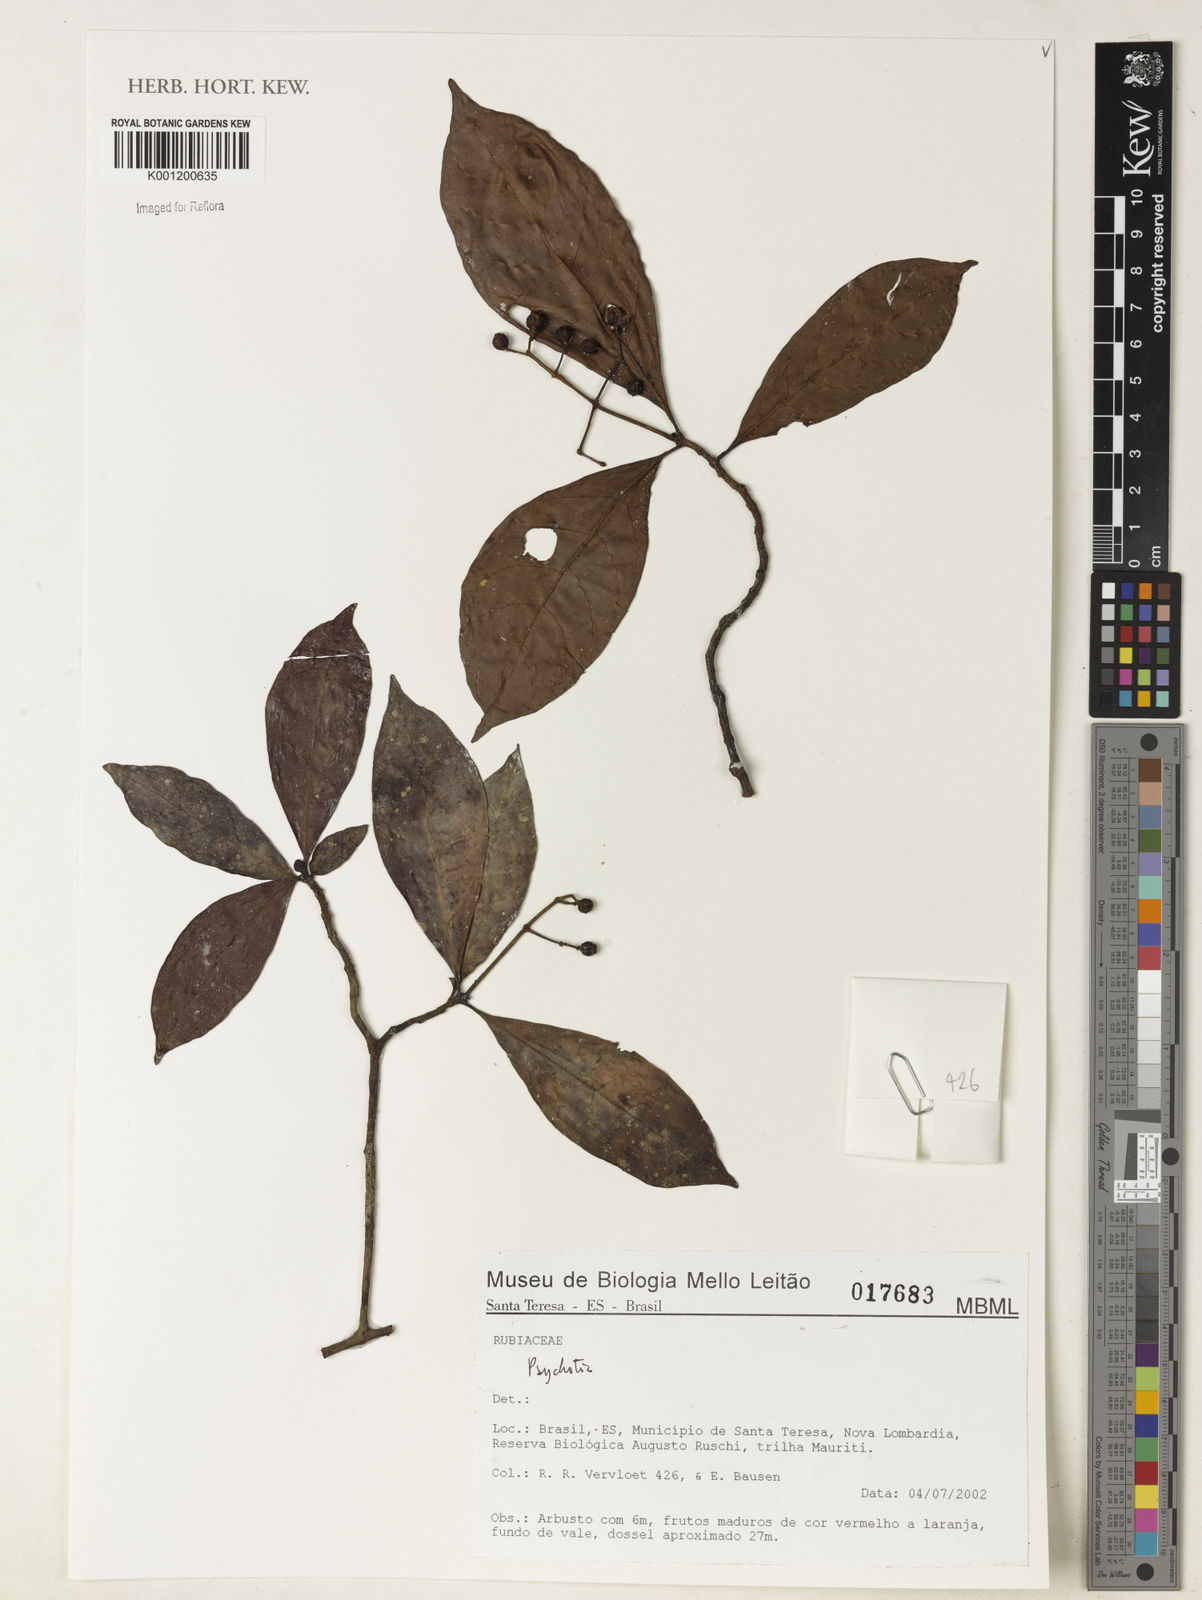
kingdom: Plantae
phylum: Tracheophyta
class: Magnoliopsida
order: Gentianales
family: Rubiaceae
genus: Psychotria
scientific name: Psychotria
